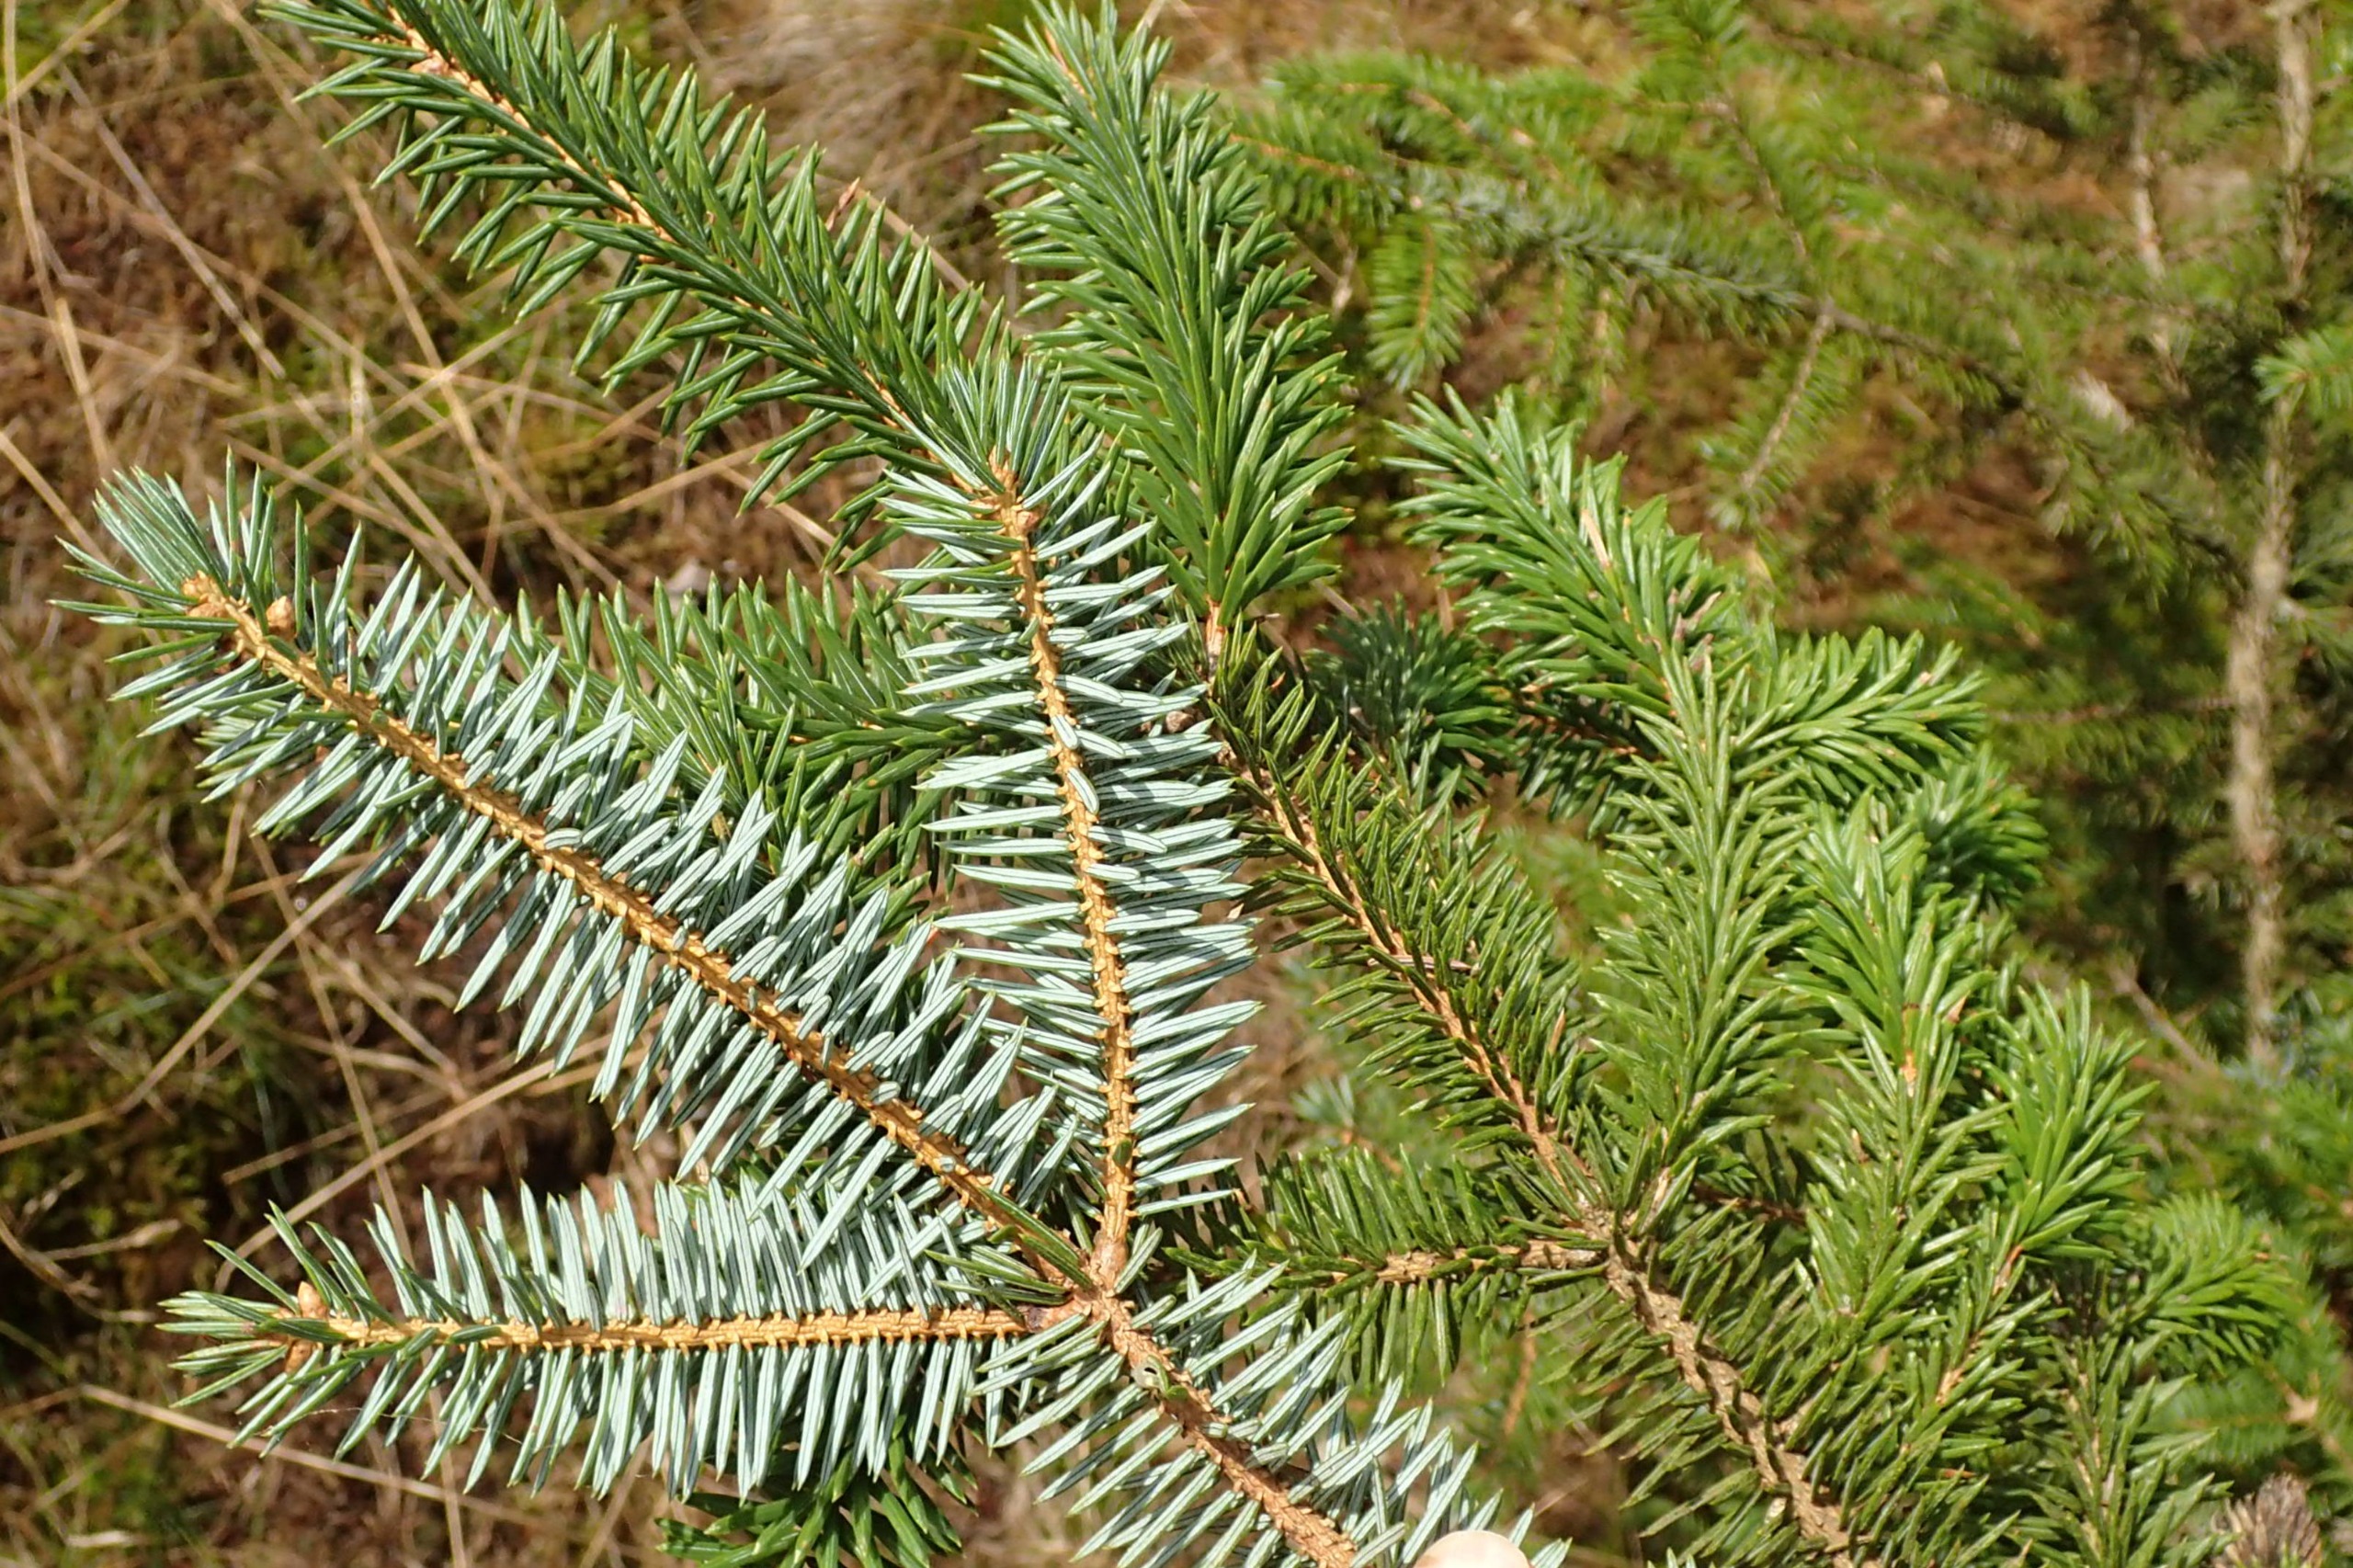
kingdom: Plantae
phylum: Tracheophyta
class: Pinopsida
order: Pinales
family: Pinaceae
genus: Picea
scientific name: Picea sitchensis
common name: Sitka-gran
